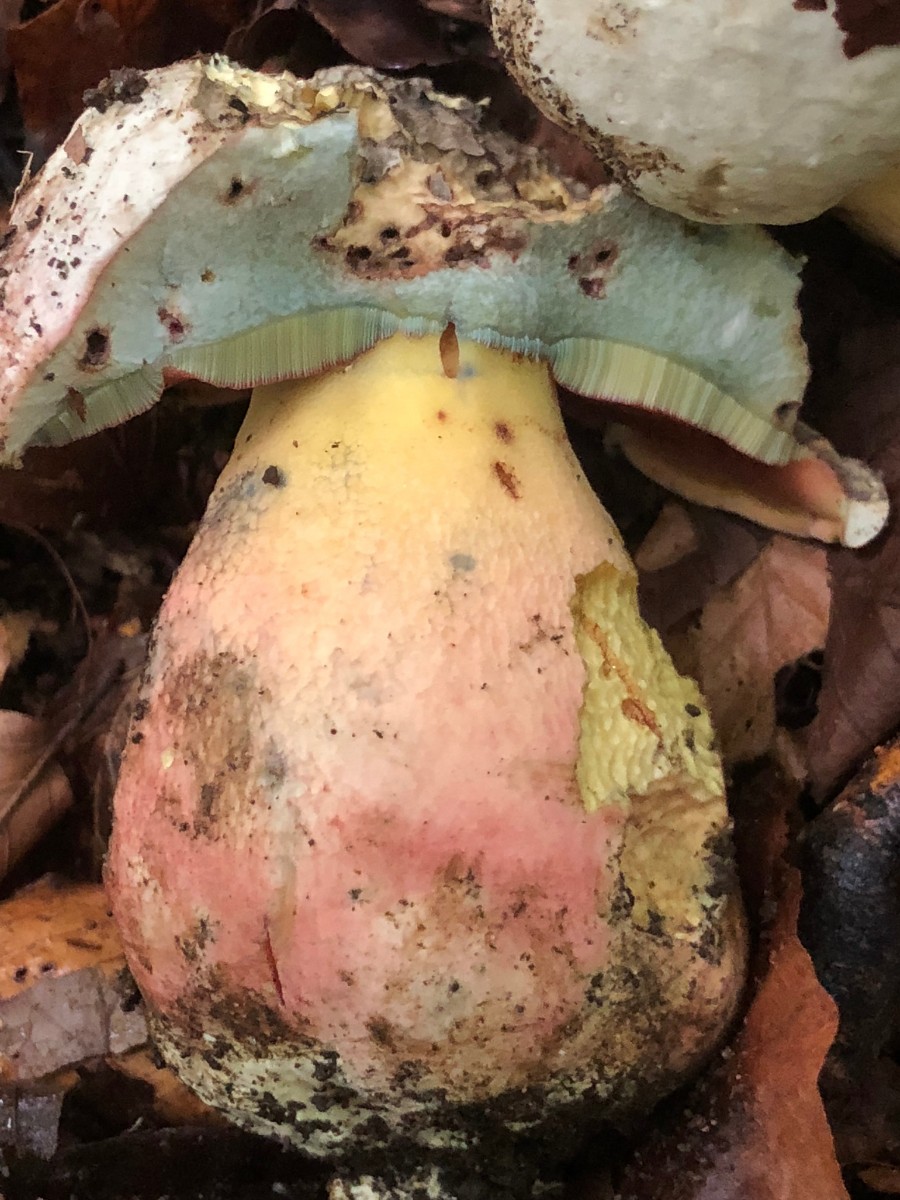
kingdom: Fungi
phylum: Basidiomycota
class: Agaricomycetes
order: Boletales
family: Boletaceae
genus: Rubroboletus
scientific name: Rubroboletus satanas
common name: Satans rørhat
